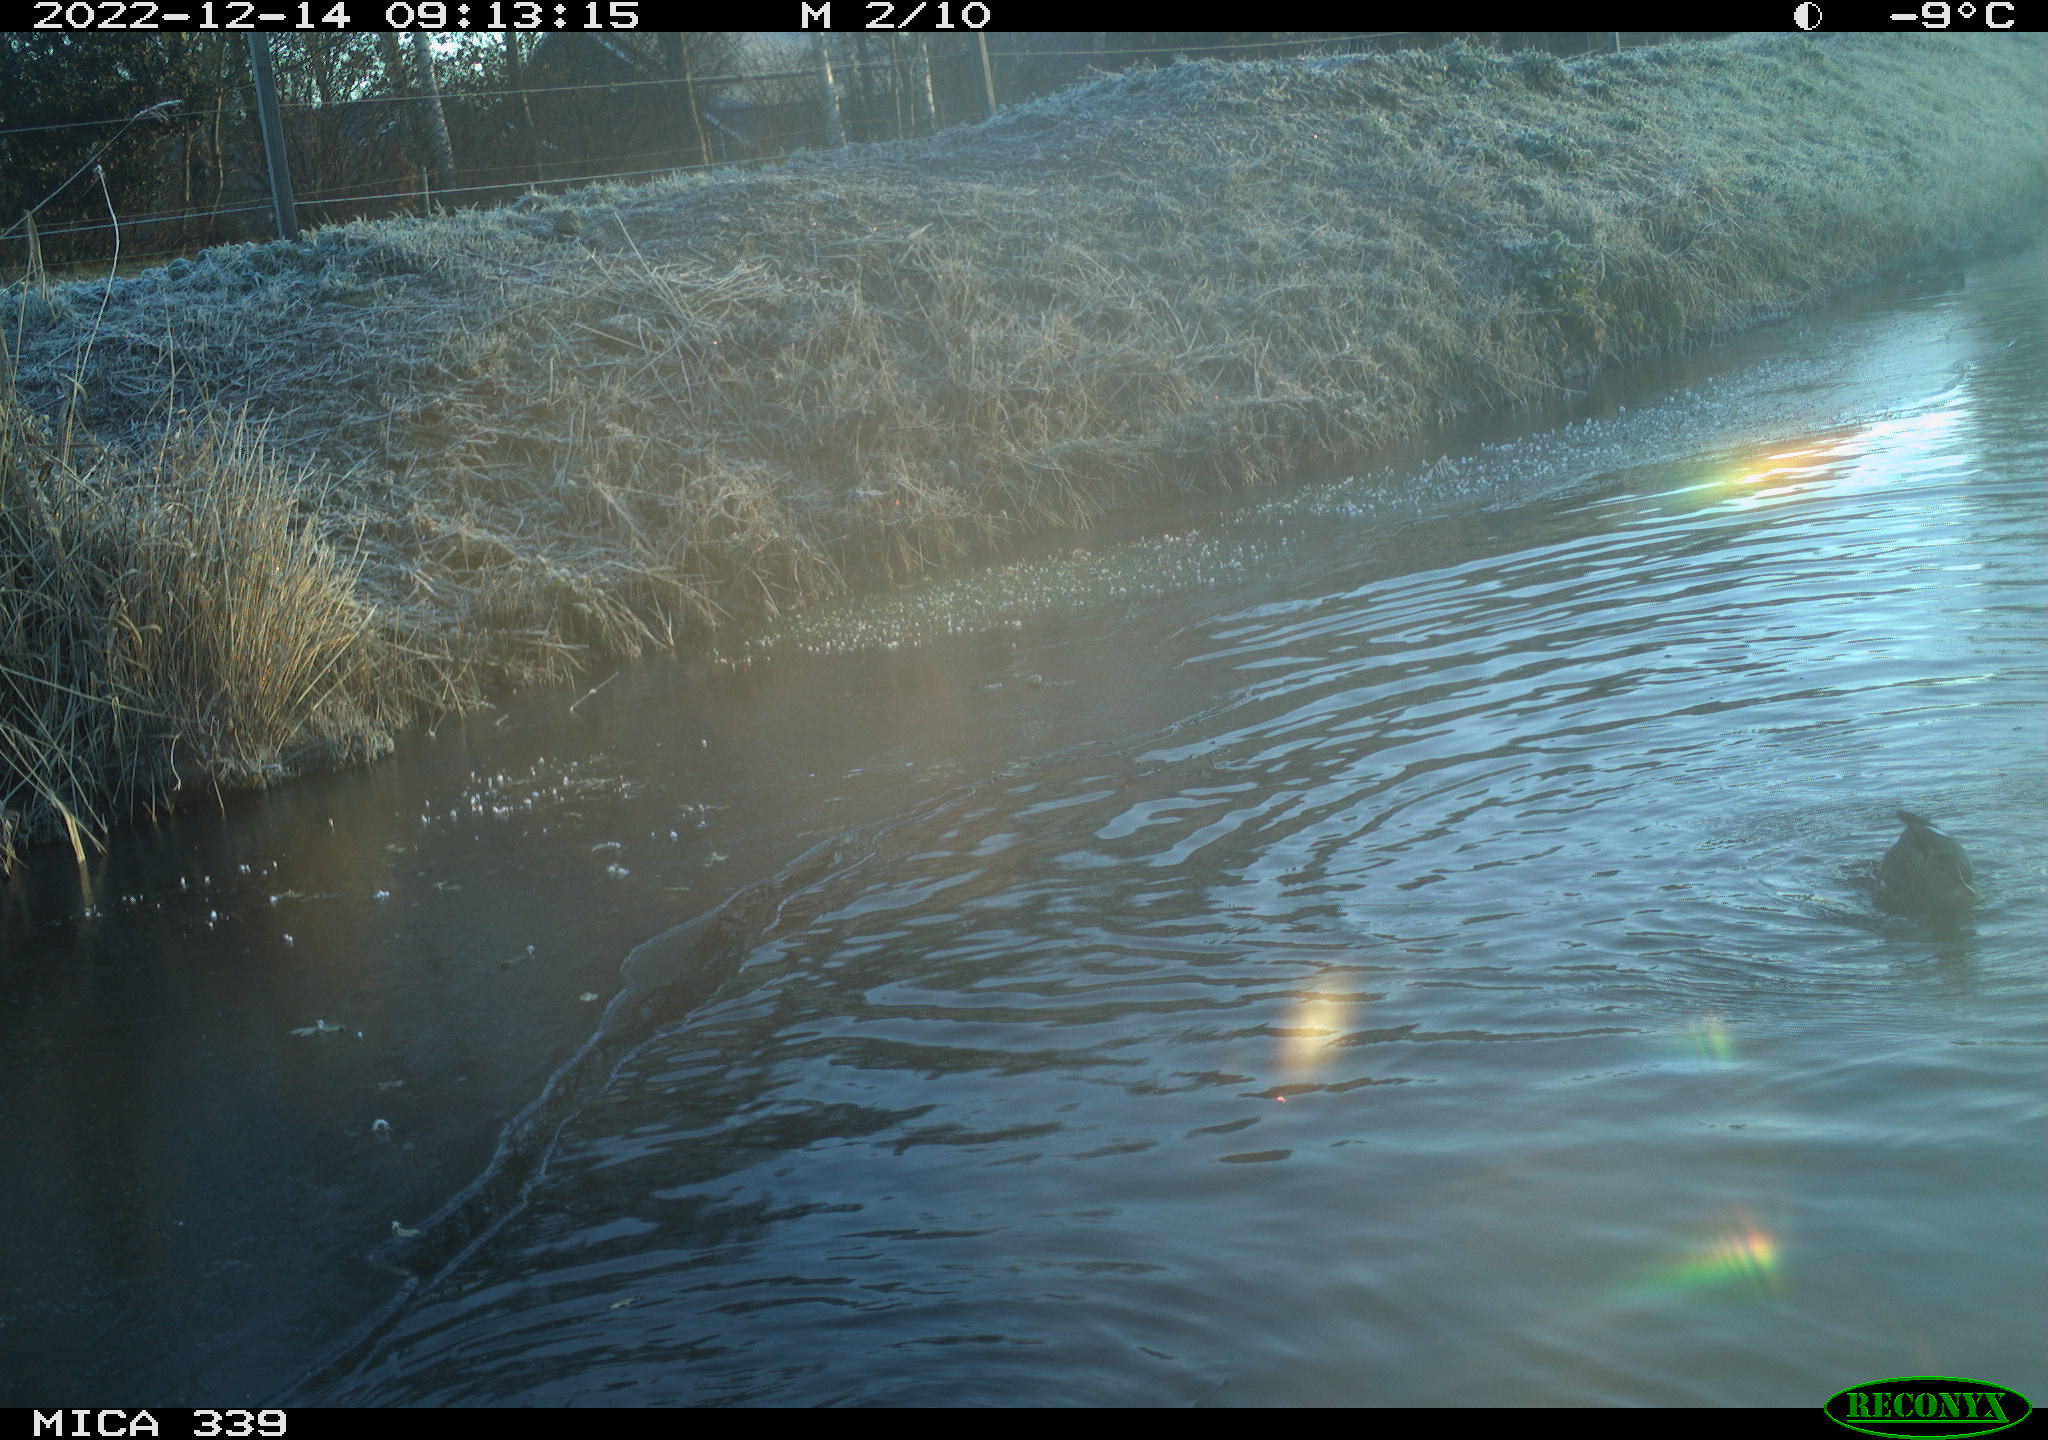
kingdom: Animalia
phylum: Chordata
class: Aves
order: Anseriformes
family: Anatidae
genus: Anas
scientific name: Anas
